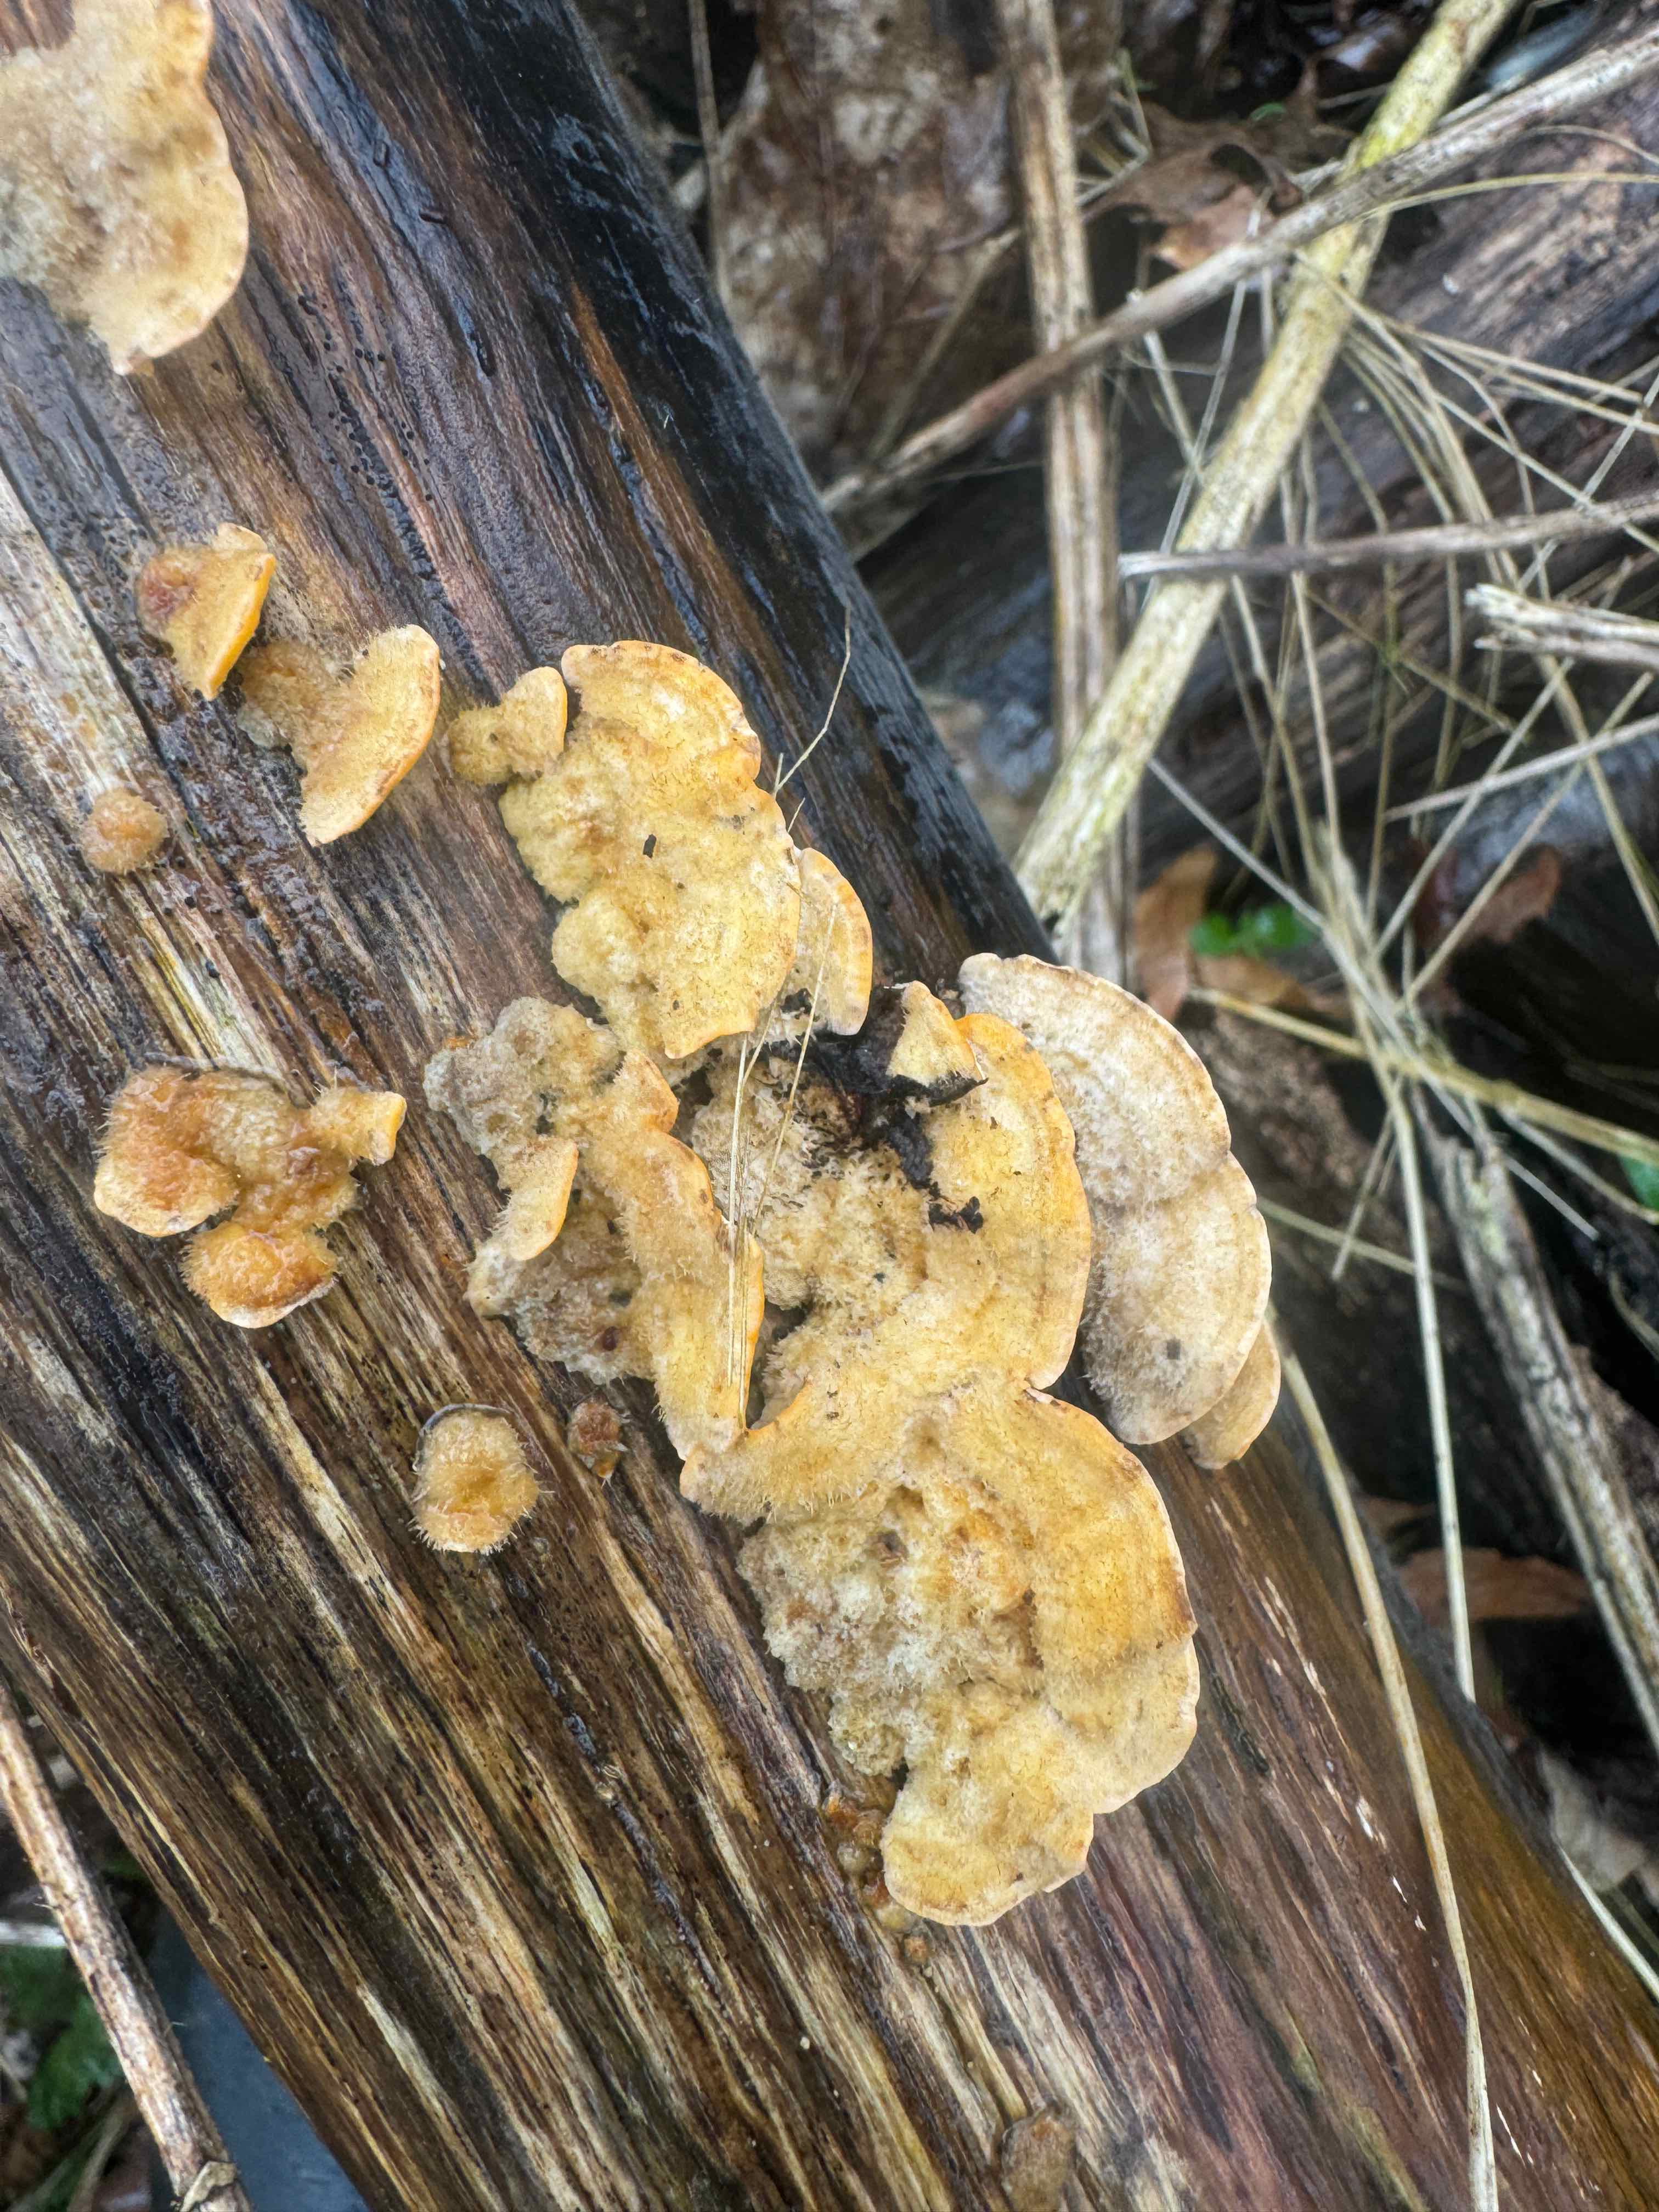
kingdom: Fungi
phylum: Basidiomycota
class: Agaricomycetes
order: Russulales
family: Stereaceae
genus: Stereum
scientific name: Stereum hirsutum
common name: håret lædersvamp
